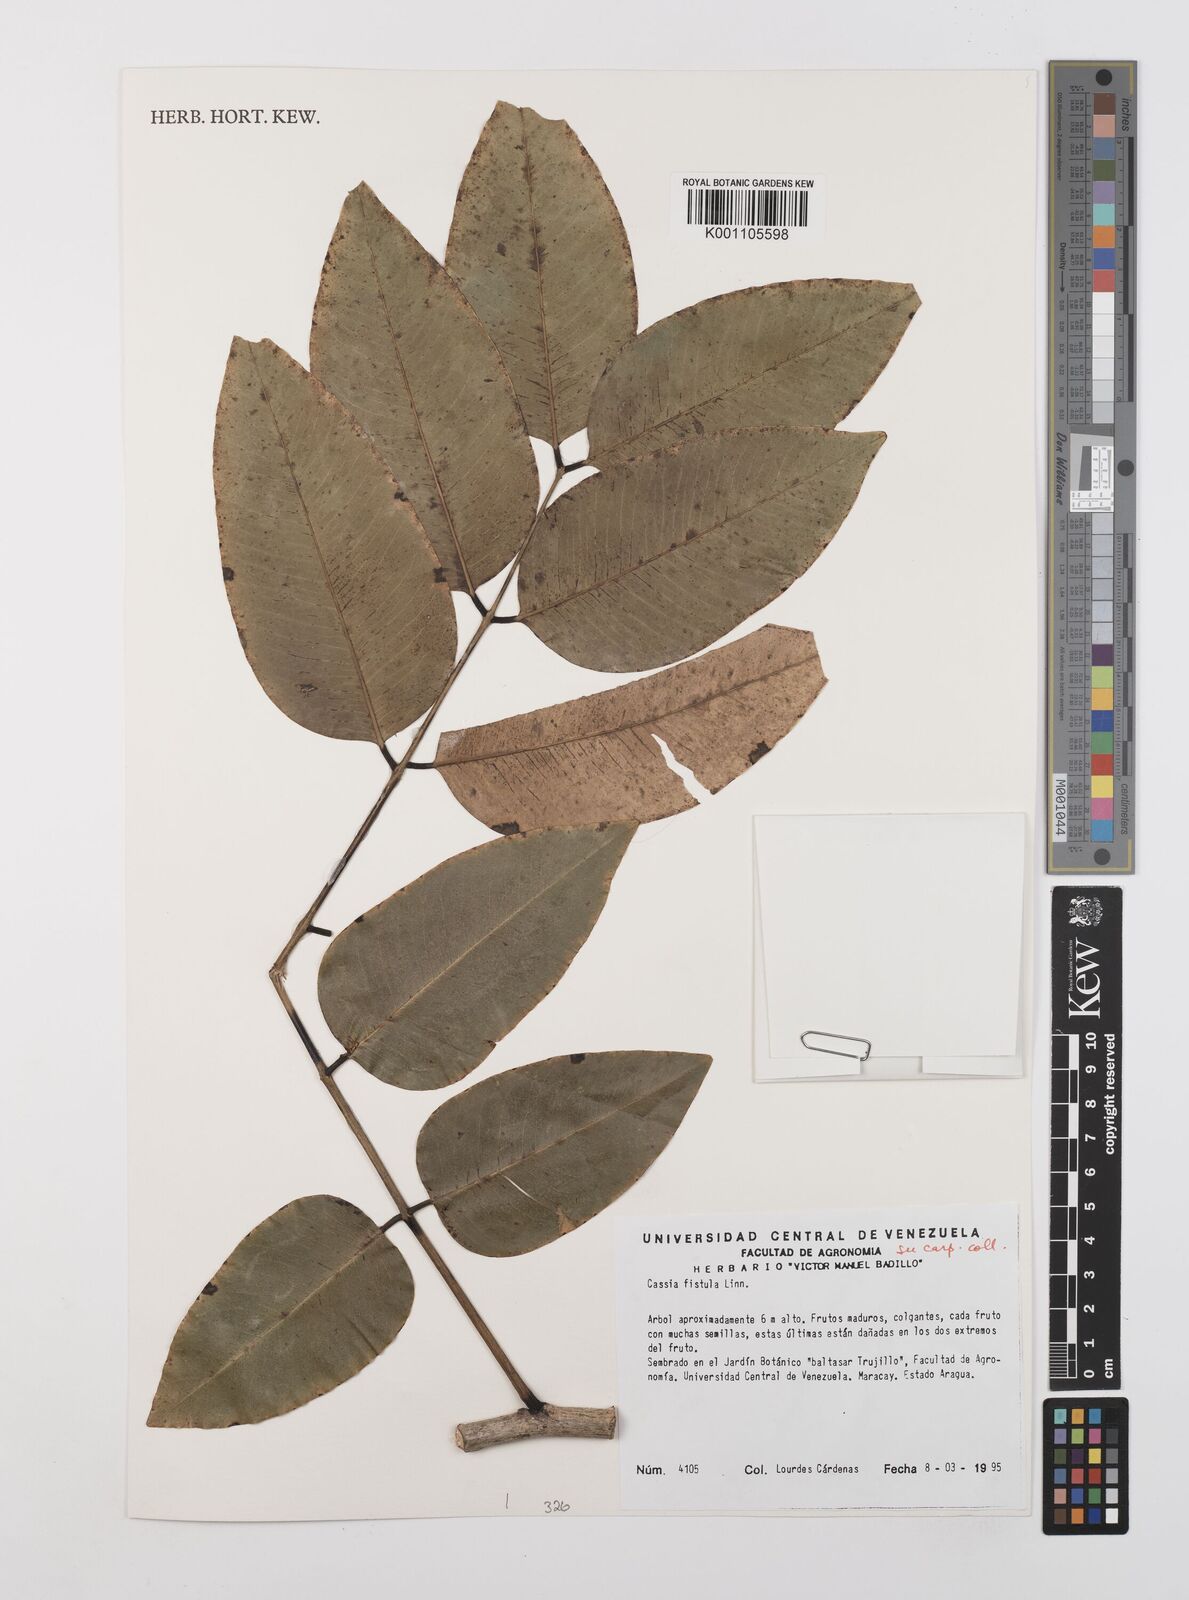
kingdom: Plantae
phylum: Tracheophyta
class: Magnoliopsida
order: Fabales
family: Fabaceae
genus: Cassia
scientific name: Cassia fistula
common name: Golden shower
